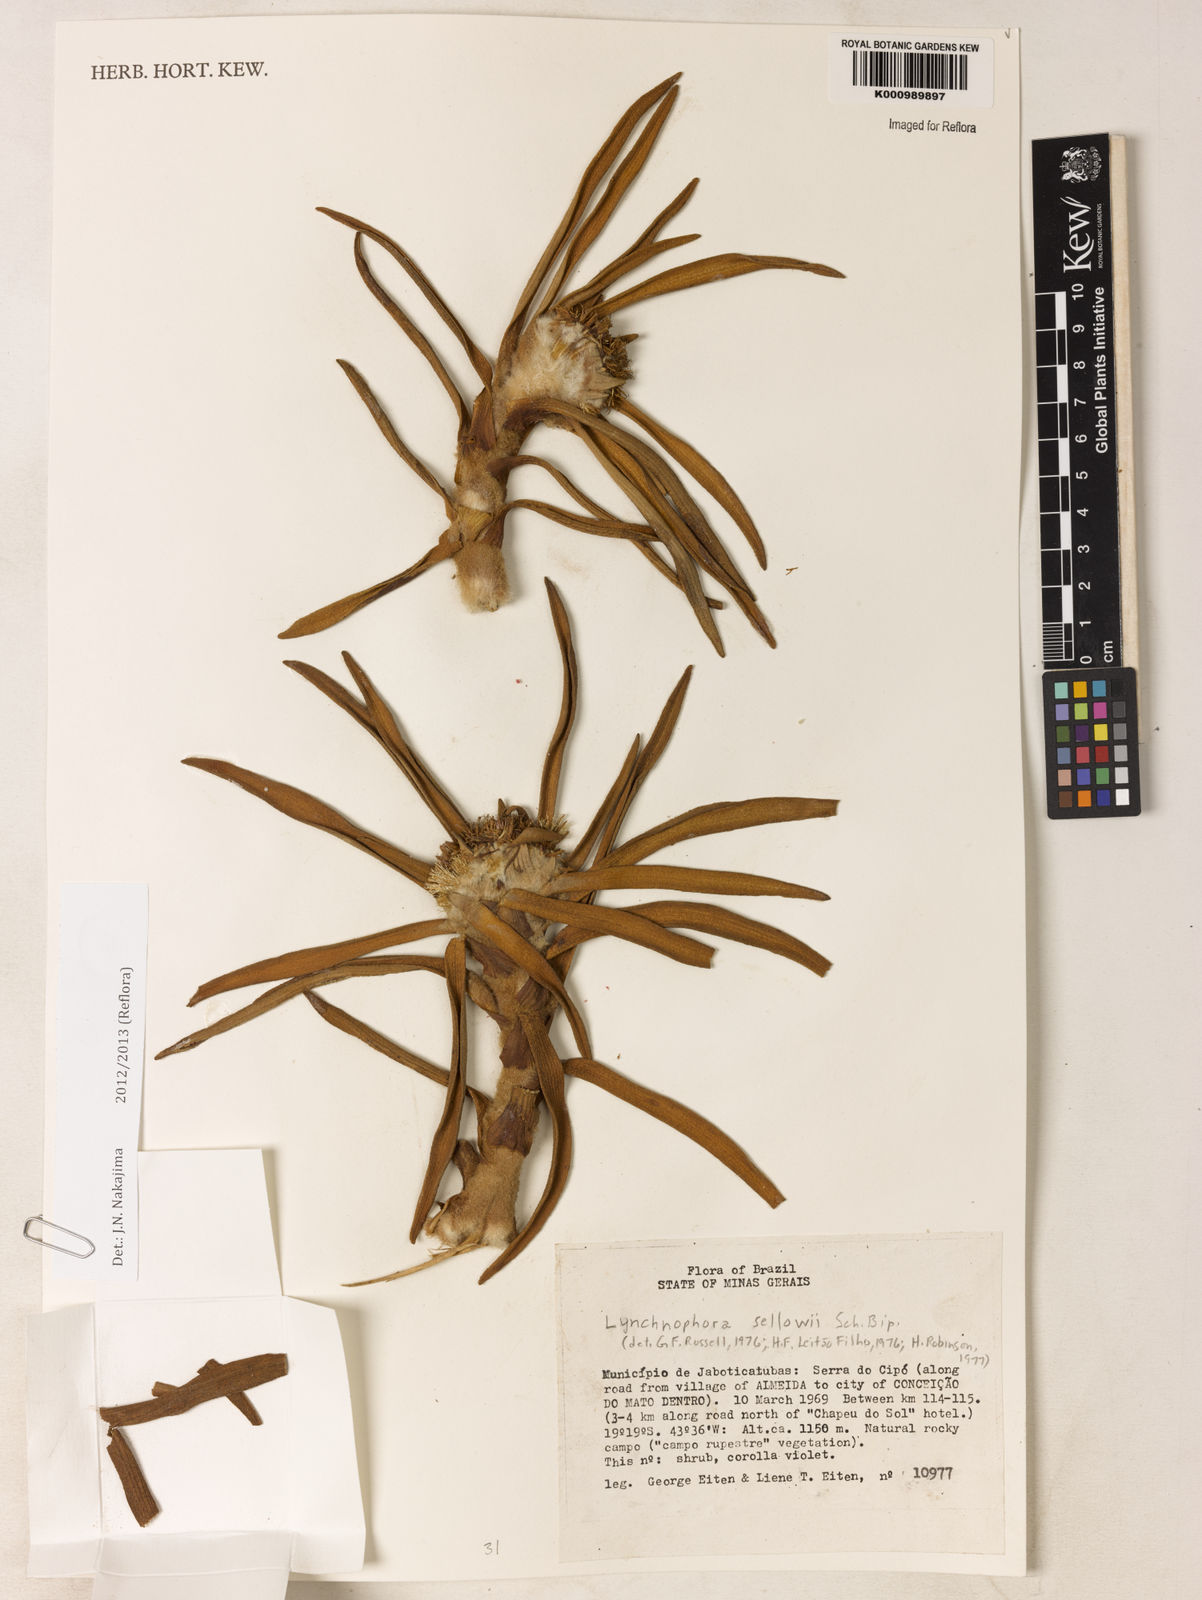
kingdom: Plantae
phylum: Tracheophyta
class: Magnoliopsida
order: Asterales
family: Asteraceae
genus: Lychnophora
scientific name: Lychnophora
